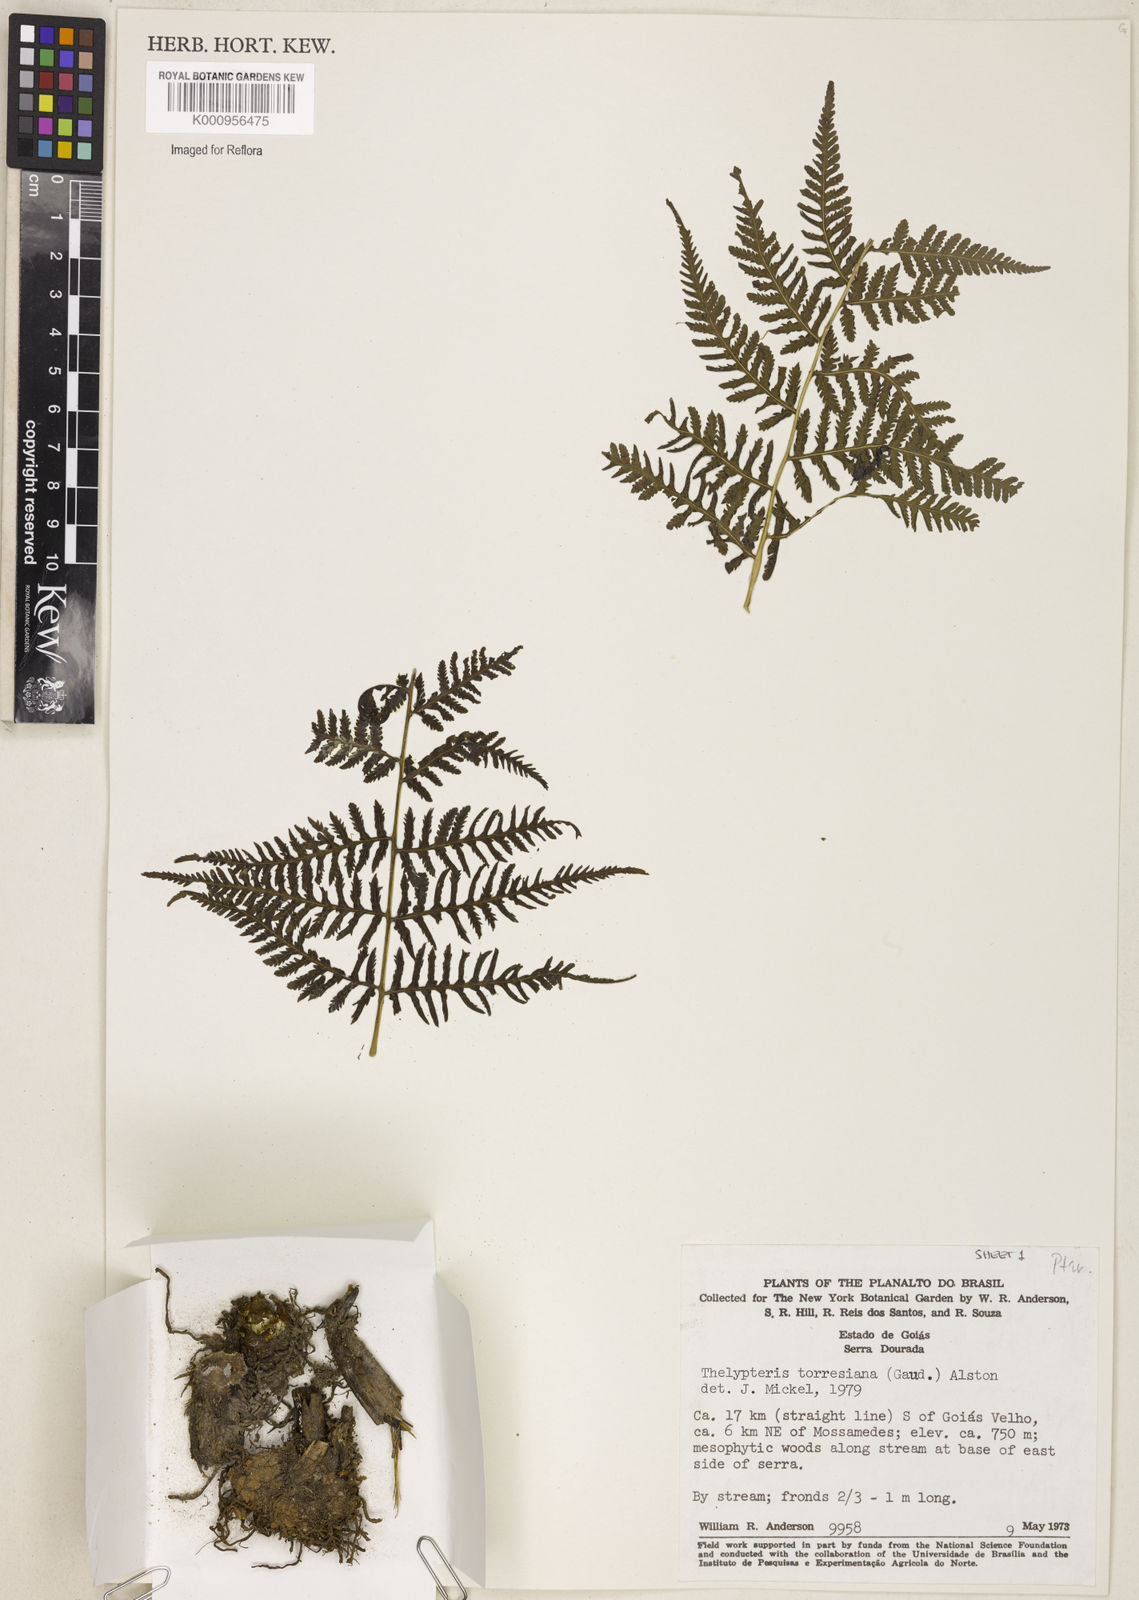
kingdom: Plantae
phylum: Tracheophyta
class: Polypodiopsida
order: Polypodiales
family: Thelypteridaceae
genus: Macrothelypteris
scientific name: Macrothelypteris torresiana
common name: Swordfern
